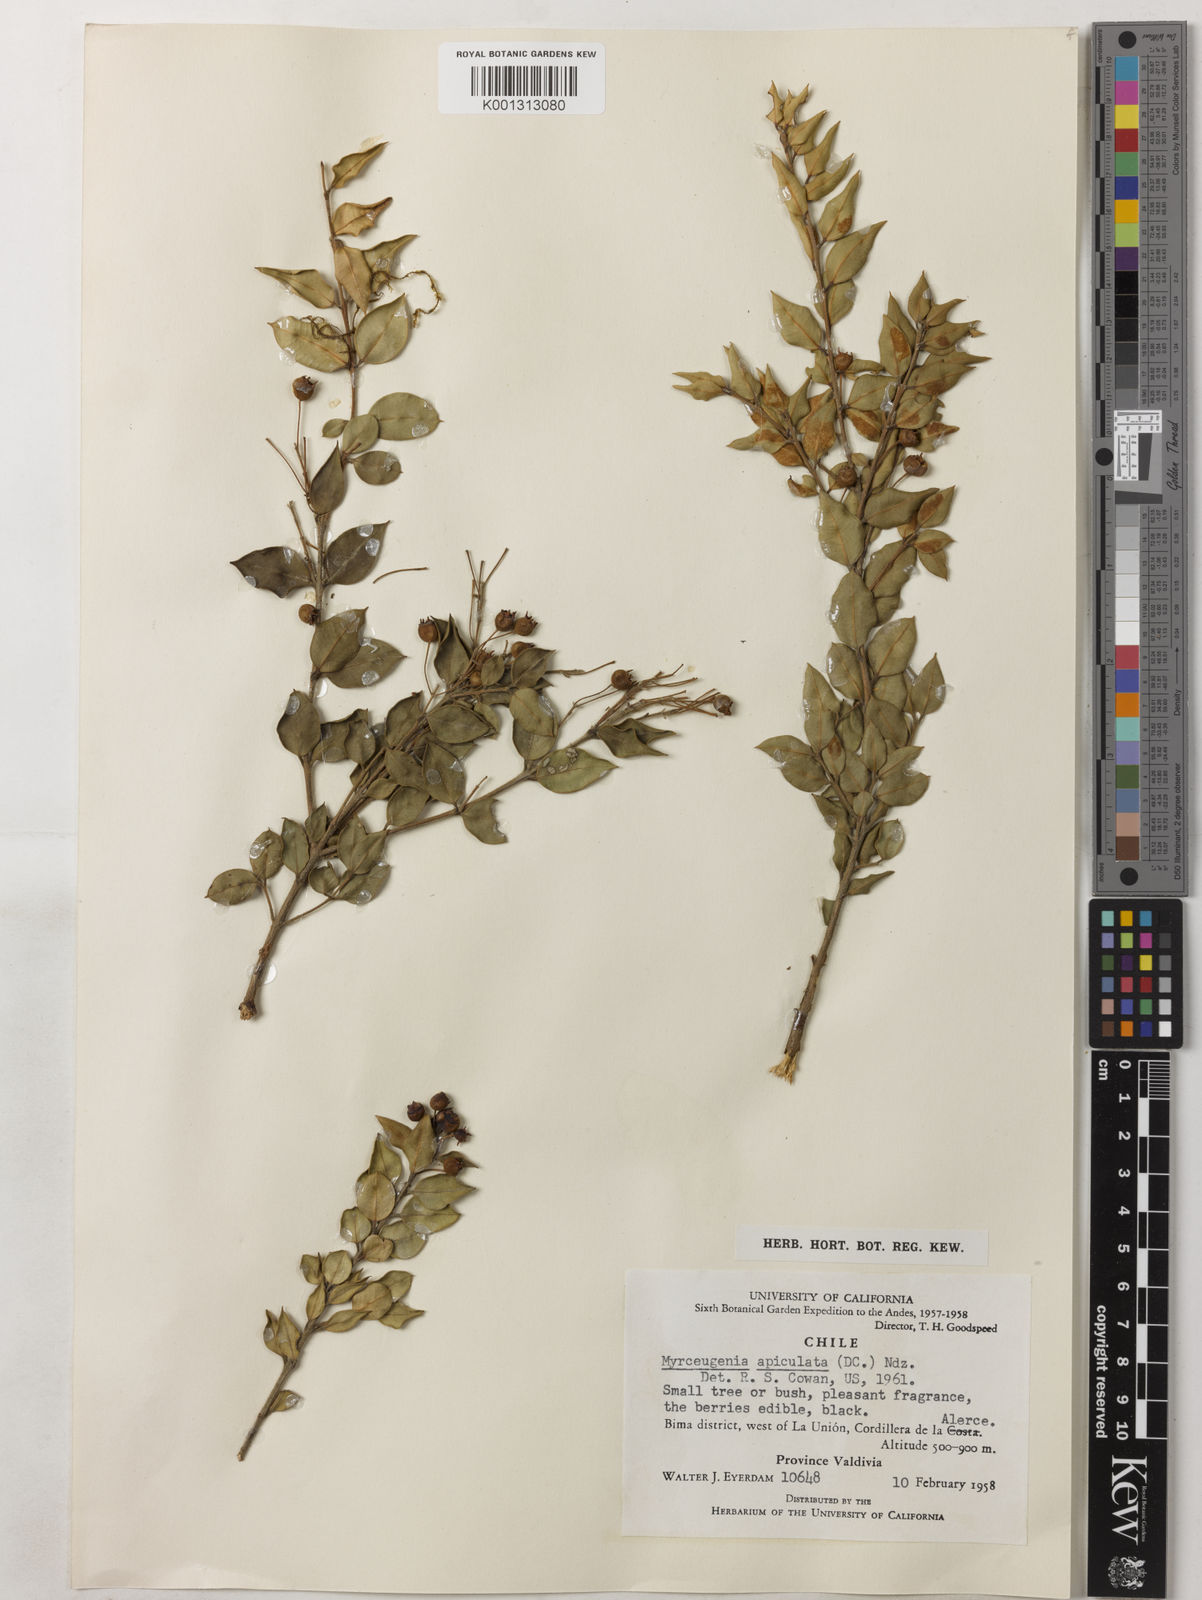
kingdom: Plantae
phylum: Tracheophyta
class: Magnoliopsida
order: Myrtales
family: Myrtaceae
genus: Luma
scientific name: Luma apiculata
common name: Chilean myrtle
